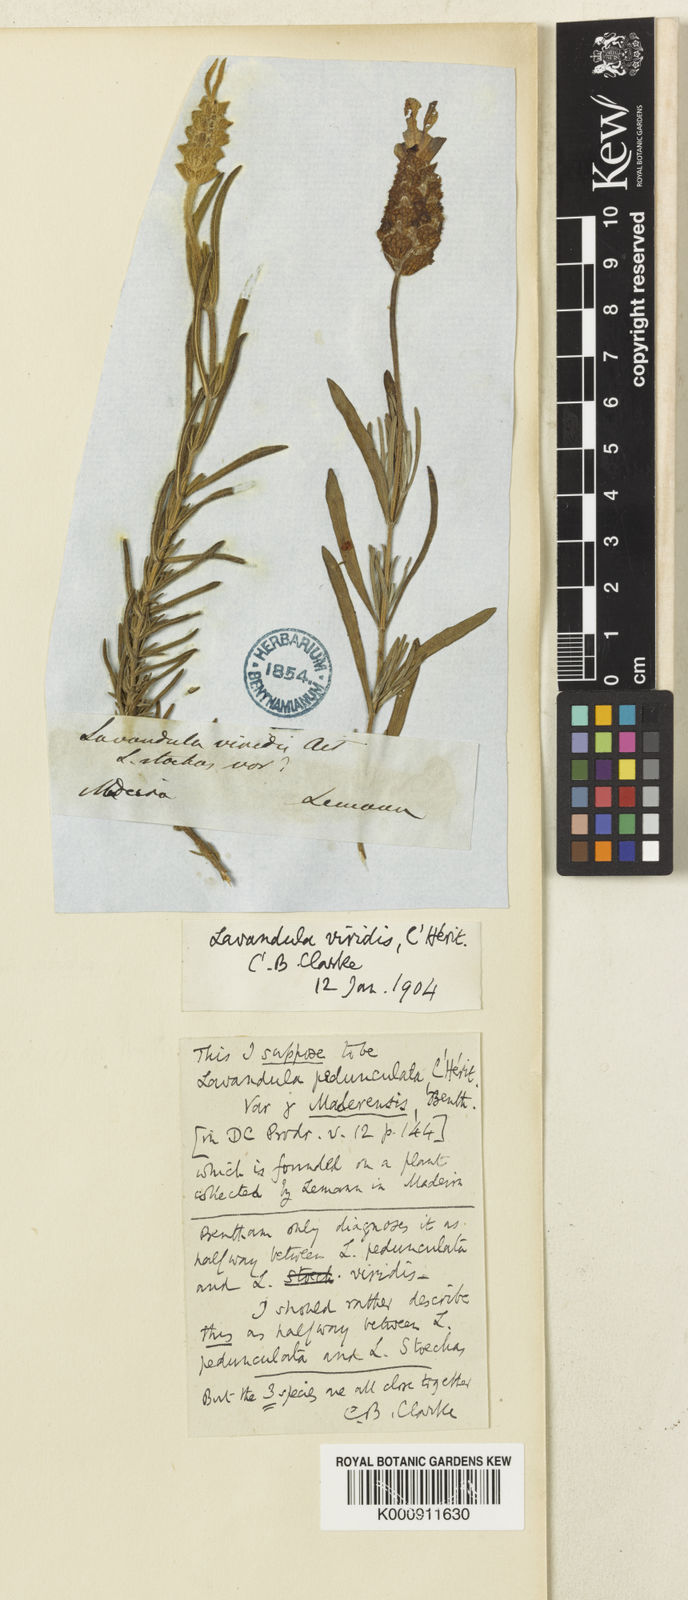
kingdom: Plantae
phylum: Tracheophyta
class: Magnoliopsida
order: Lamiales
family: Lamiaceae
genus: Lavandula
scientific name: Lavandula pedunculata
